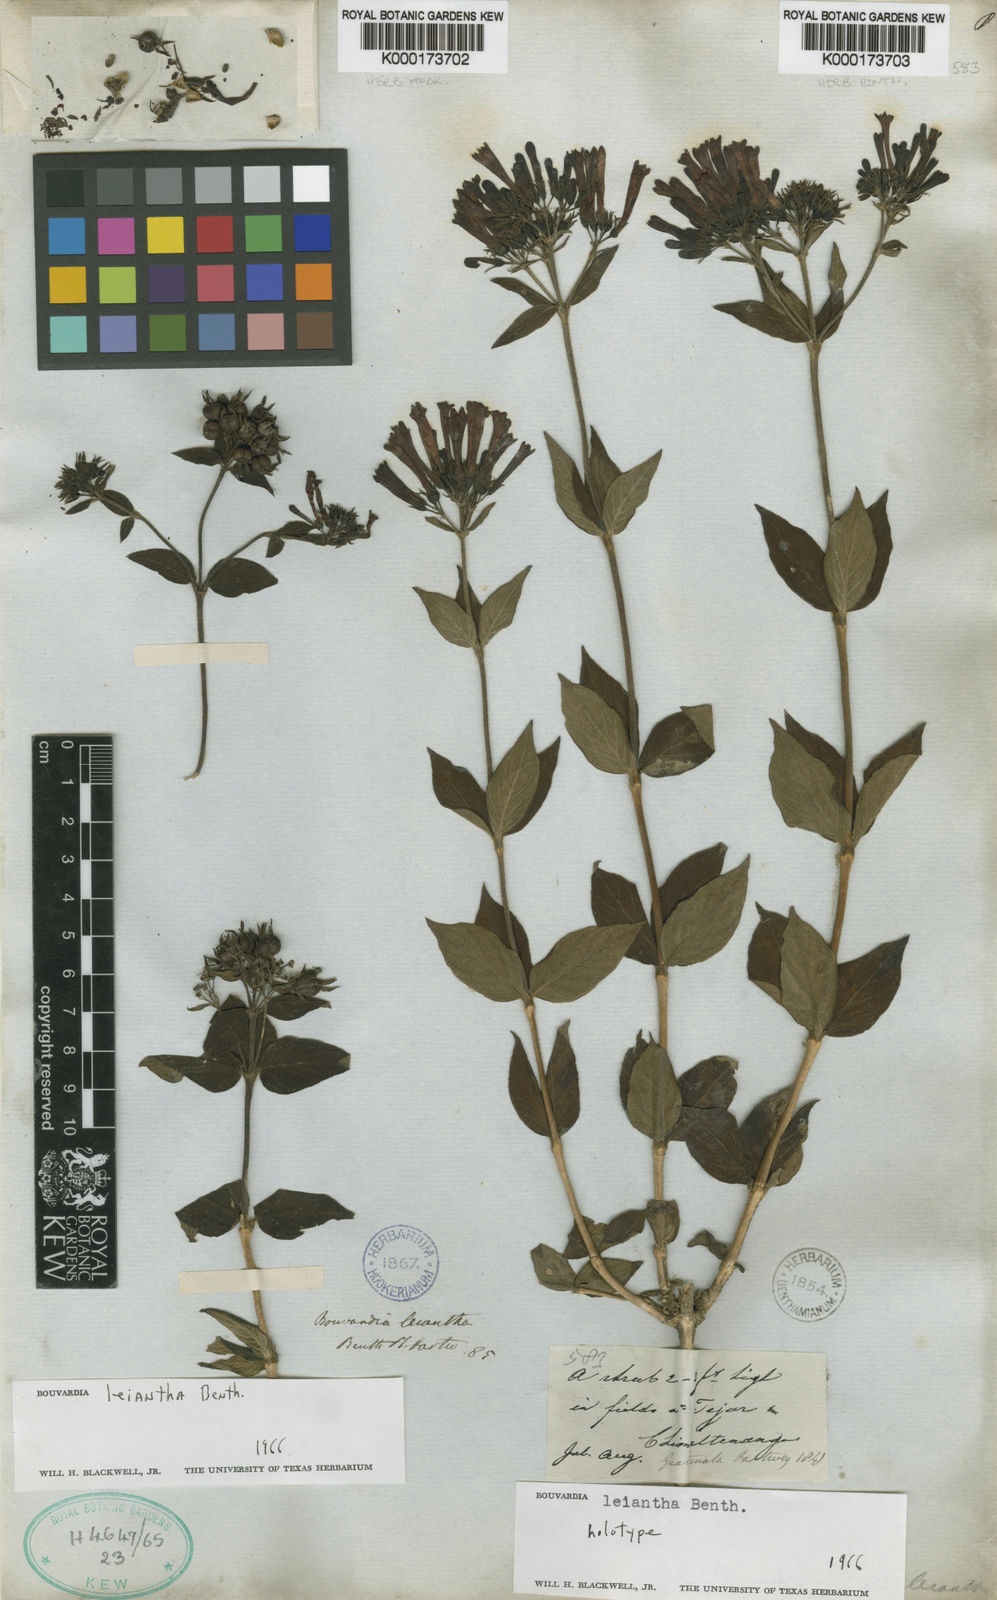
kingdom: Plantae
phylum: Tracheophyta
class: Magnoliopsida
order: Gentianales
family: Rubiaceae
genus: Bouvardia
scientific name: Bouvardia leiantha
